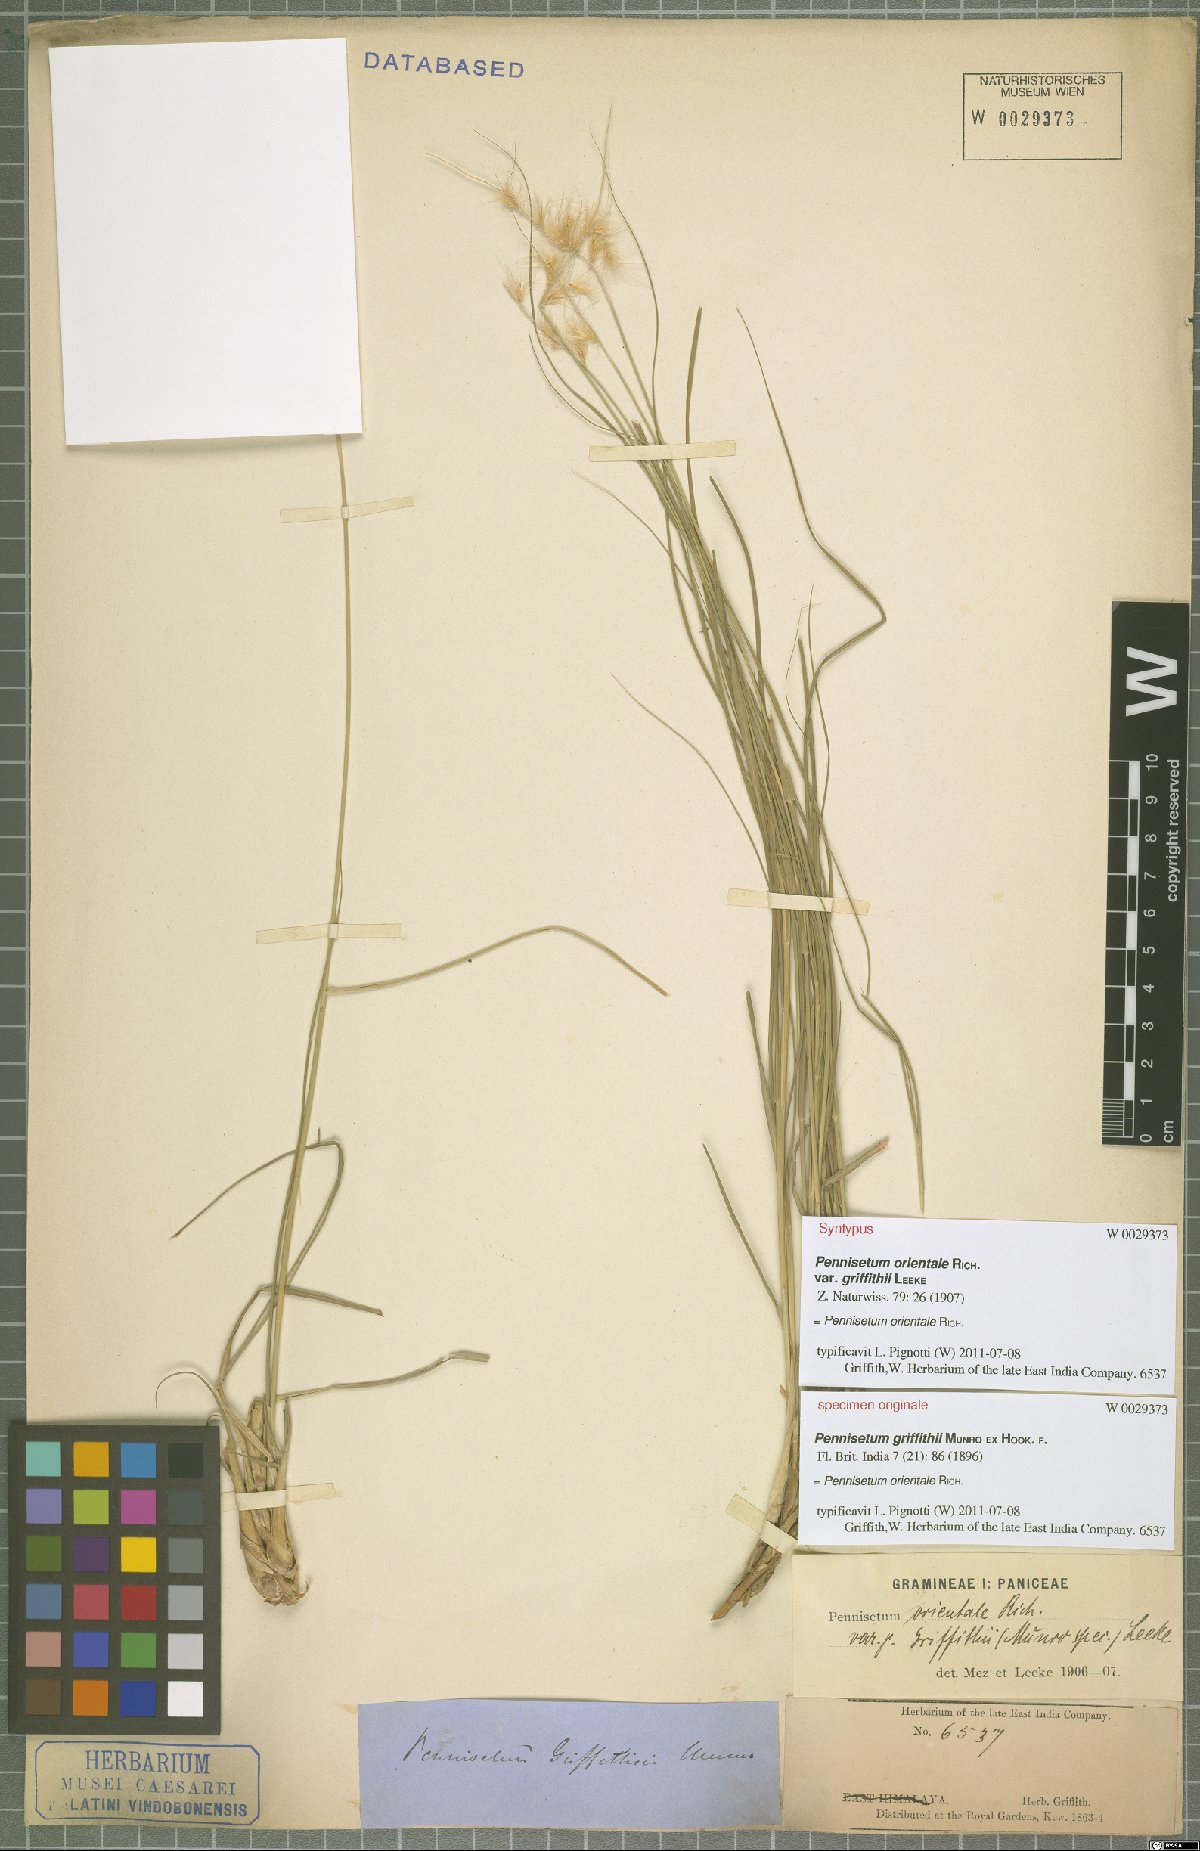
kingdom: Plantae
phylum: Tracheophyta
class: Liliopsida
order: Poales
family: Poaceae
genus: Cenchrus
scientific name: Cenchrus orientalis
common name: Oriental fountain grass
